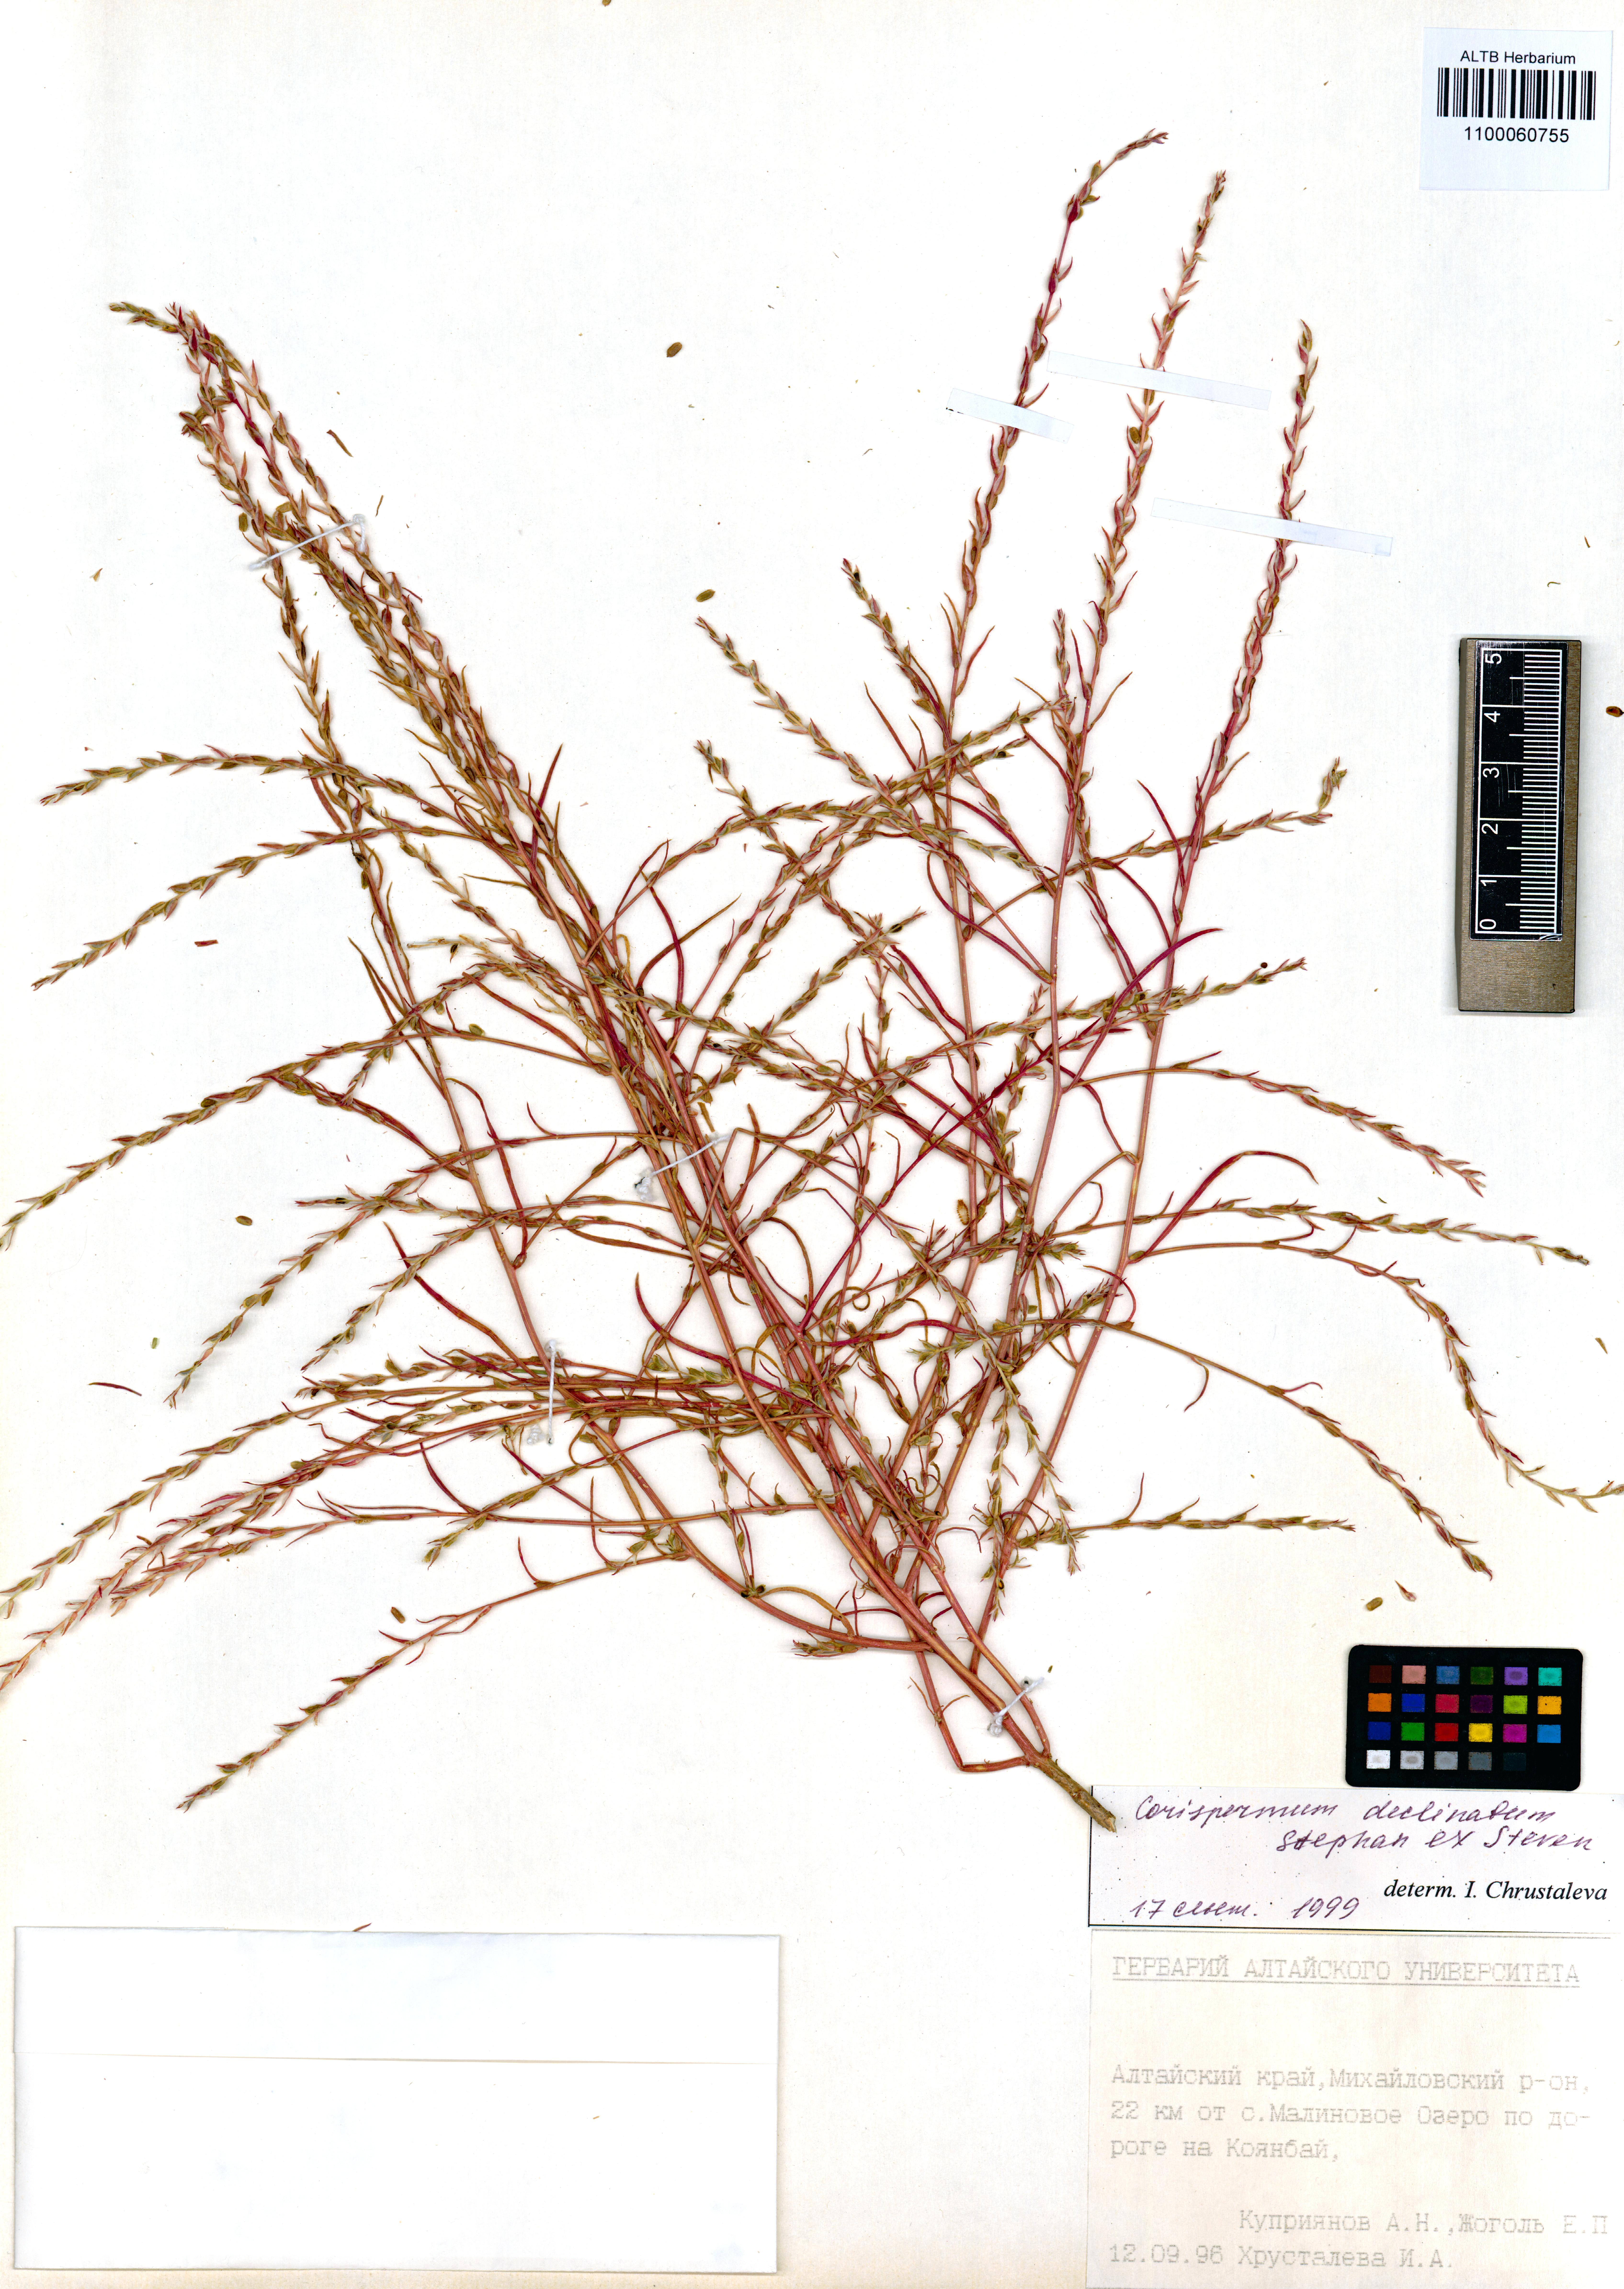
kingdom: Plantae
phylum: Tracheophyta
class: Magnoliopsida
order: Caryophyllales
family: Amaranthaceae
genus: Corispermum
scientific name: Corispermum declinatum
